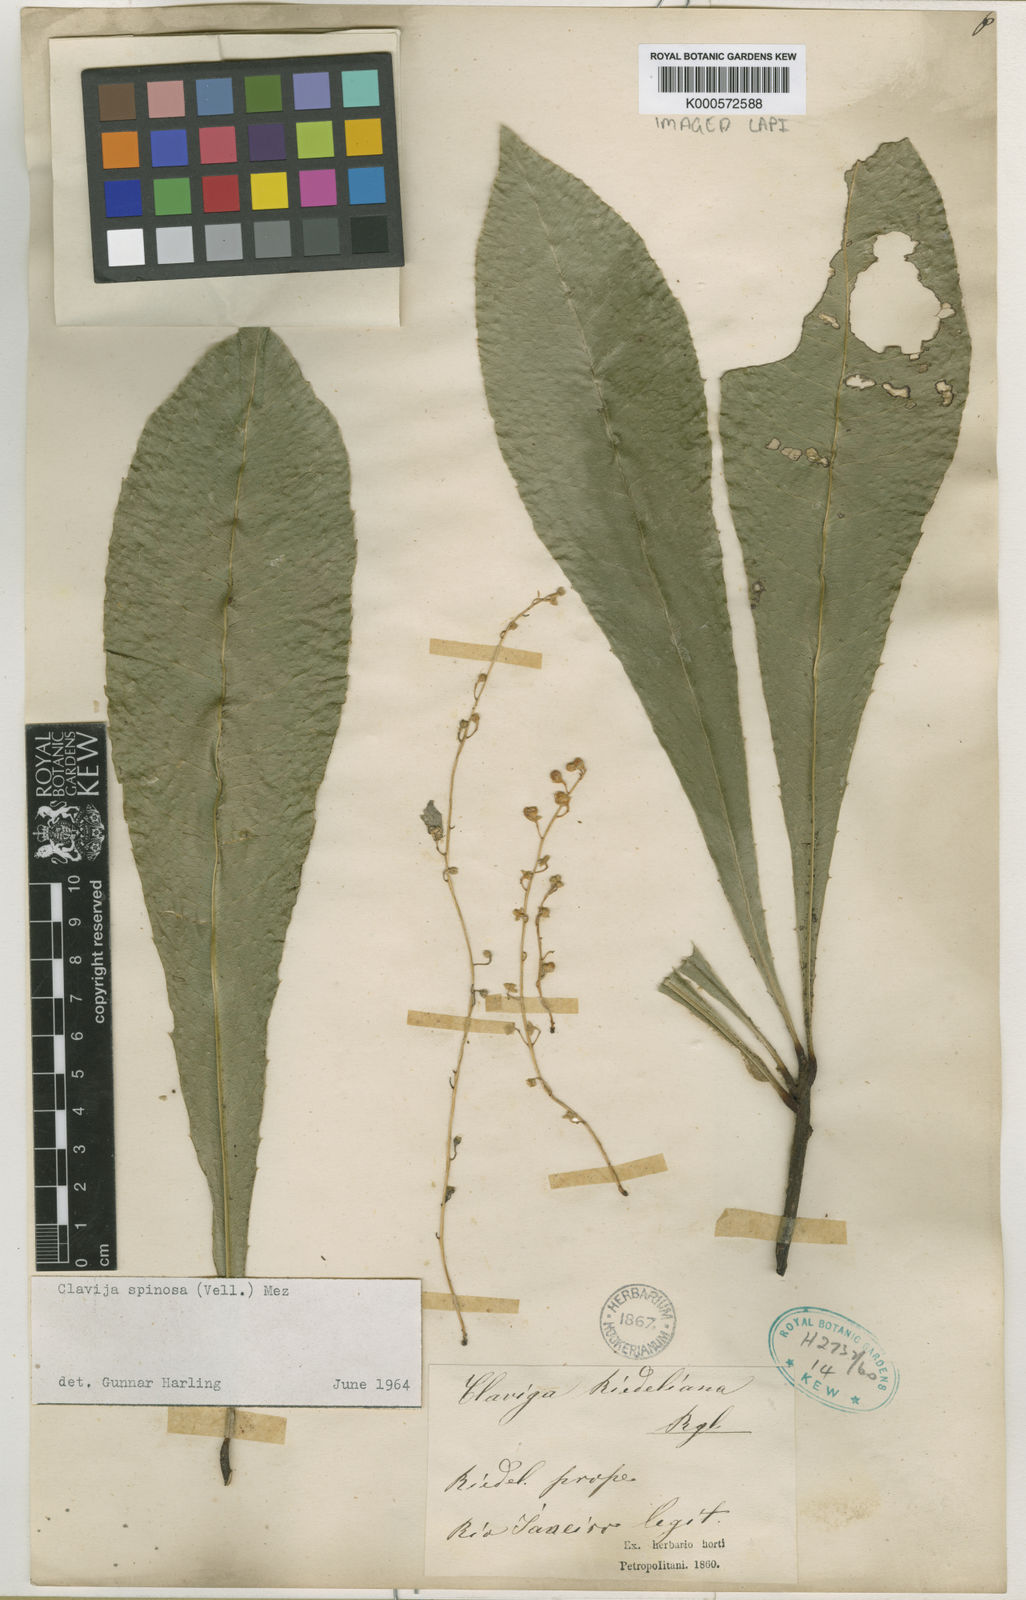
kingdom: Plantae
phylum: Tracheophyta
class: Magnoliopsida
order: Ericales
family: Primulaceae
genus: Clavija
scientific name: Clavija spinosa
